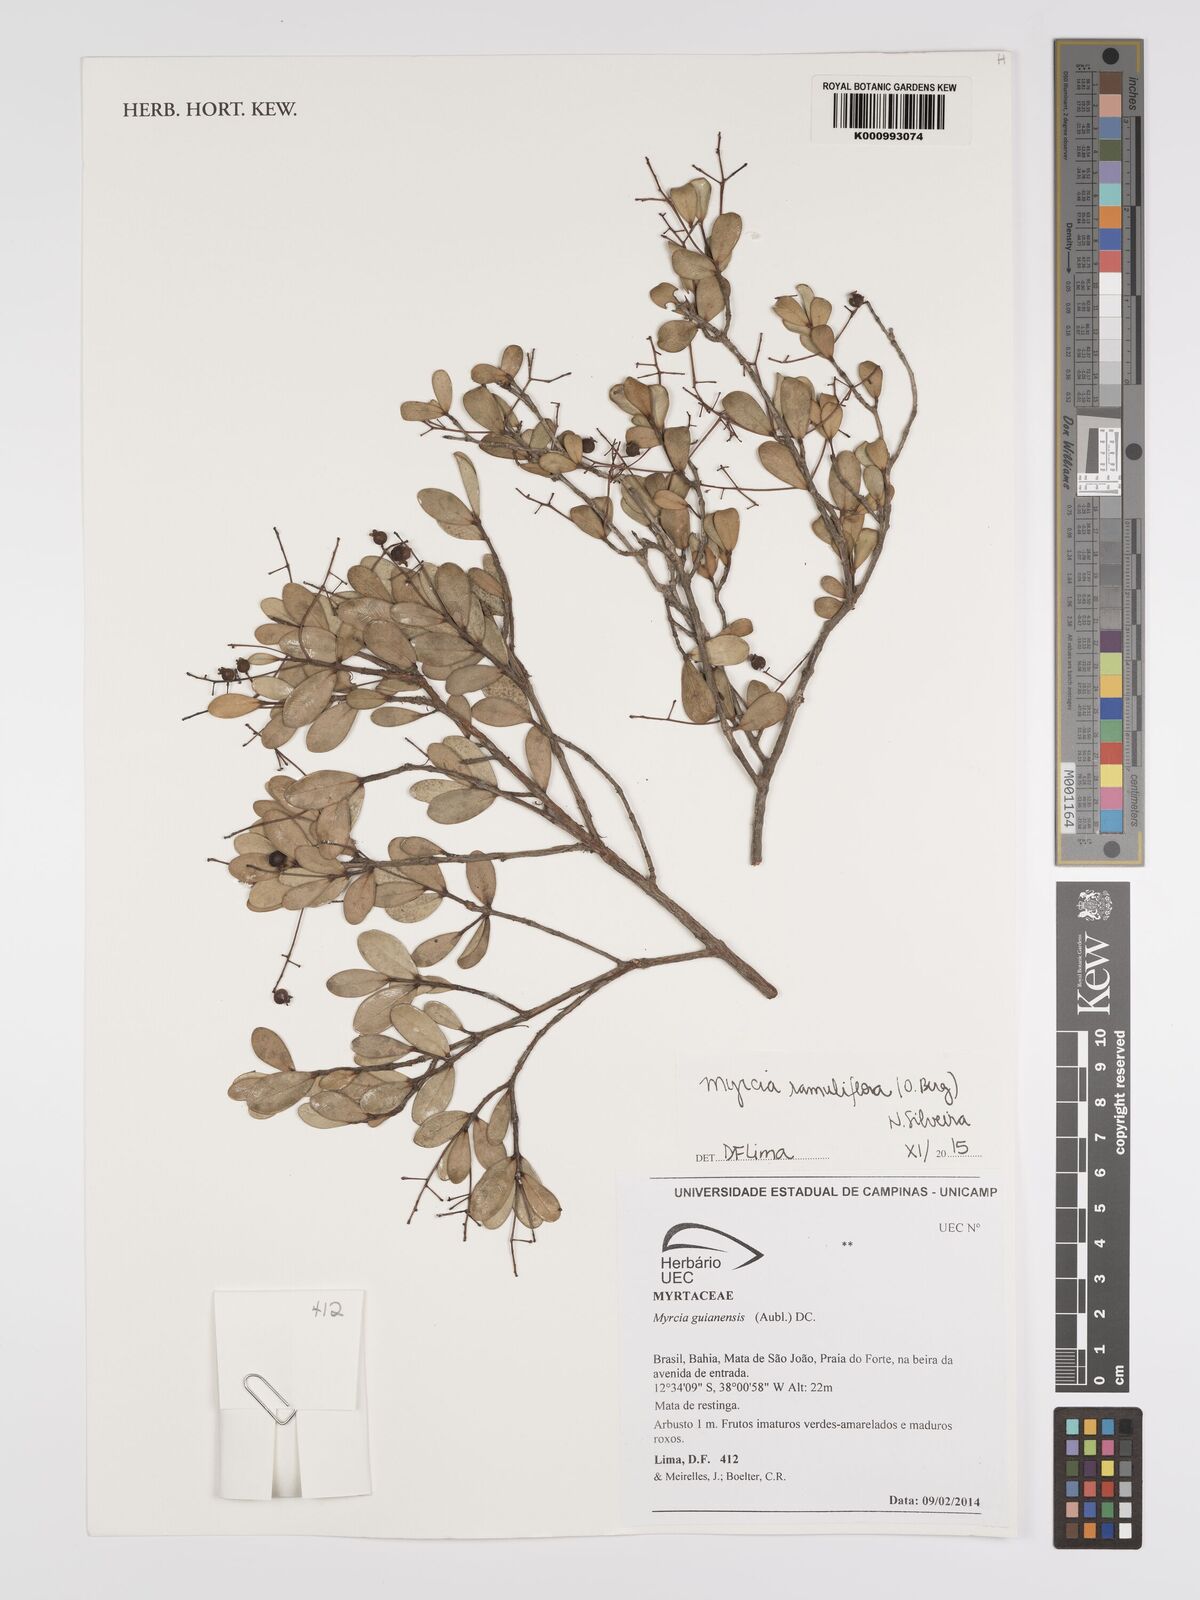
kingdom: Plantae
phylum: Tracheophyta
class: Magnoliopsida
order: Myrtales
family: Myrtaceae
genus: Myrcia
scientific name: Myrcia ramuliflora
